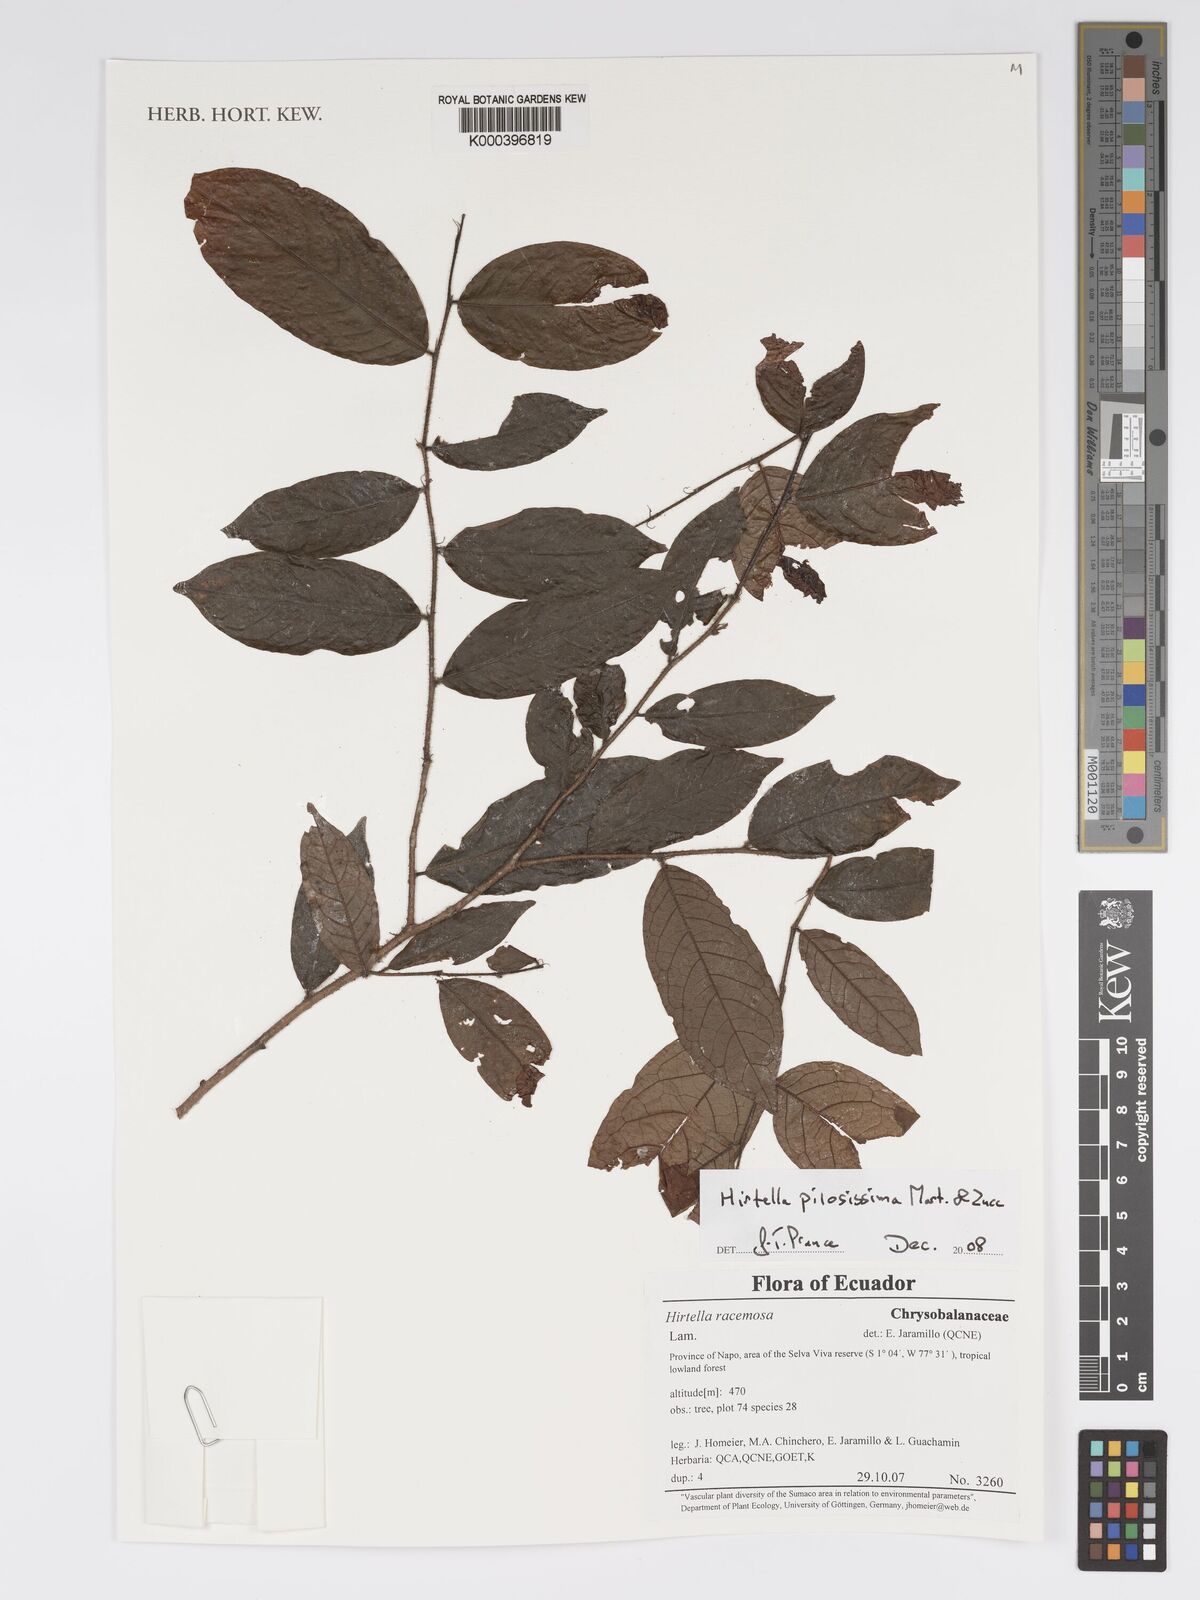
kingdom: Plantae
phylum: Tracheophyta
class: Magnoliopsida
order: Malpighiales
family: Chrysobalanaceae
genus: Hirtella
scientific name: Hirtella pilosissima
